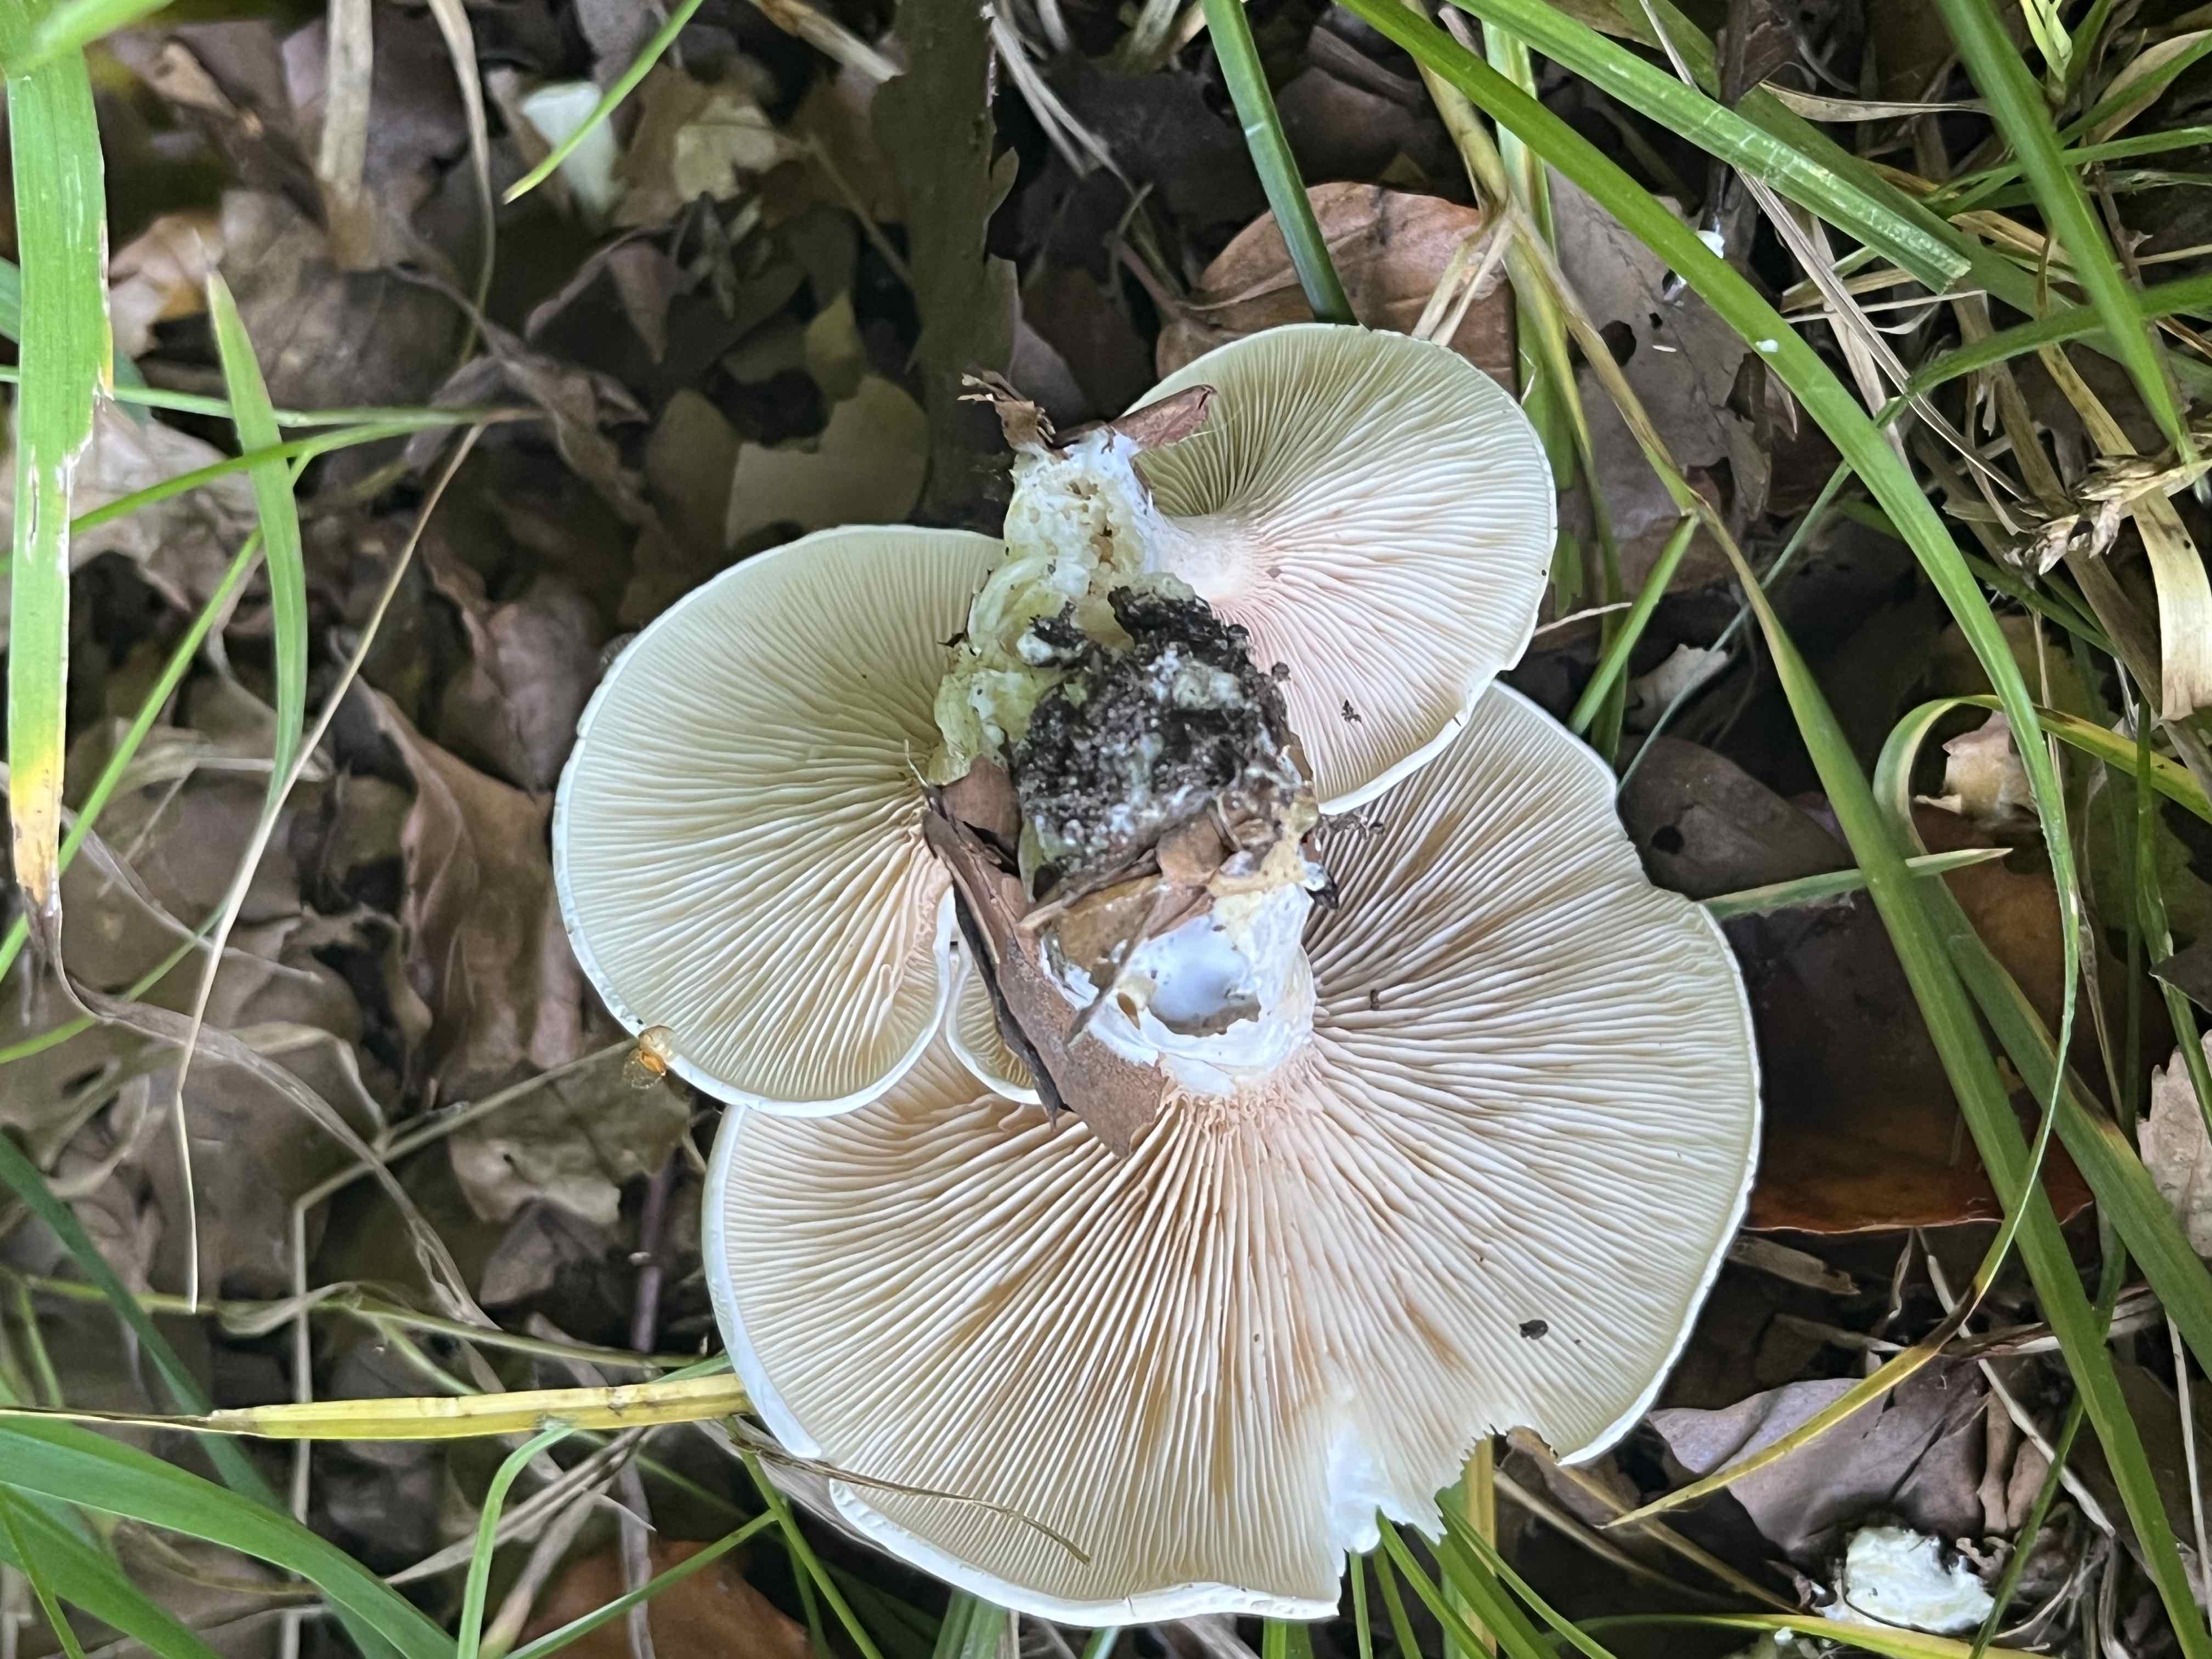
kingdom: Fungi
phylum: Basidiomycota
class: Agaricomycetes
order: Agaricales
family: Entolomataceae
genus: Clitopilus
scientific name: Clitopilus prunulus
